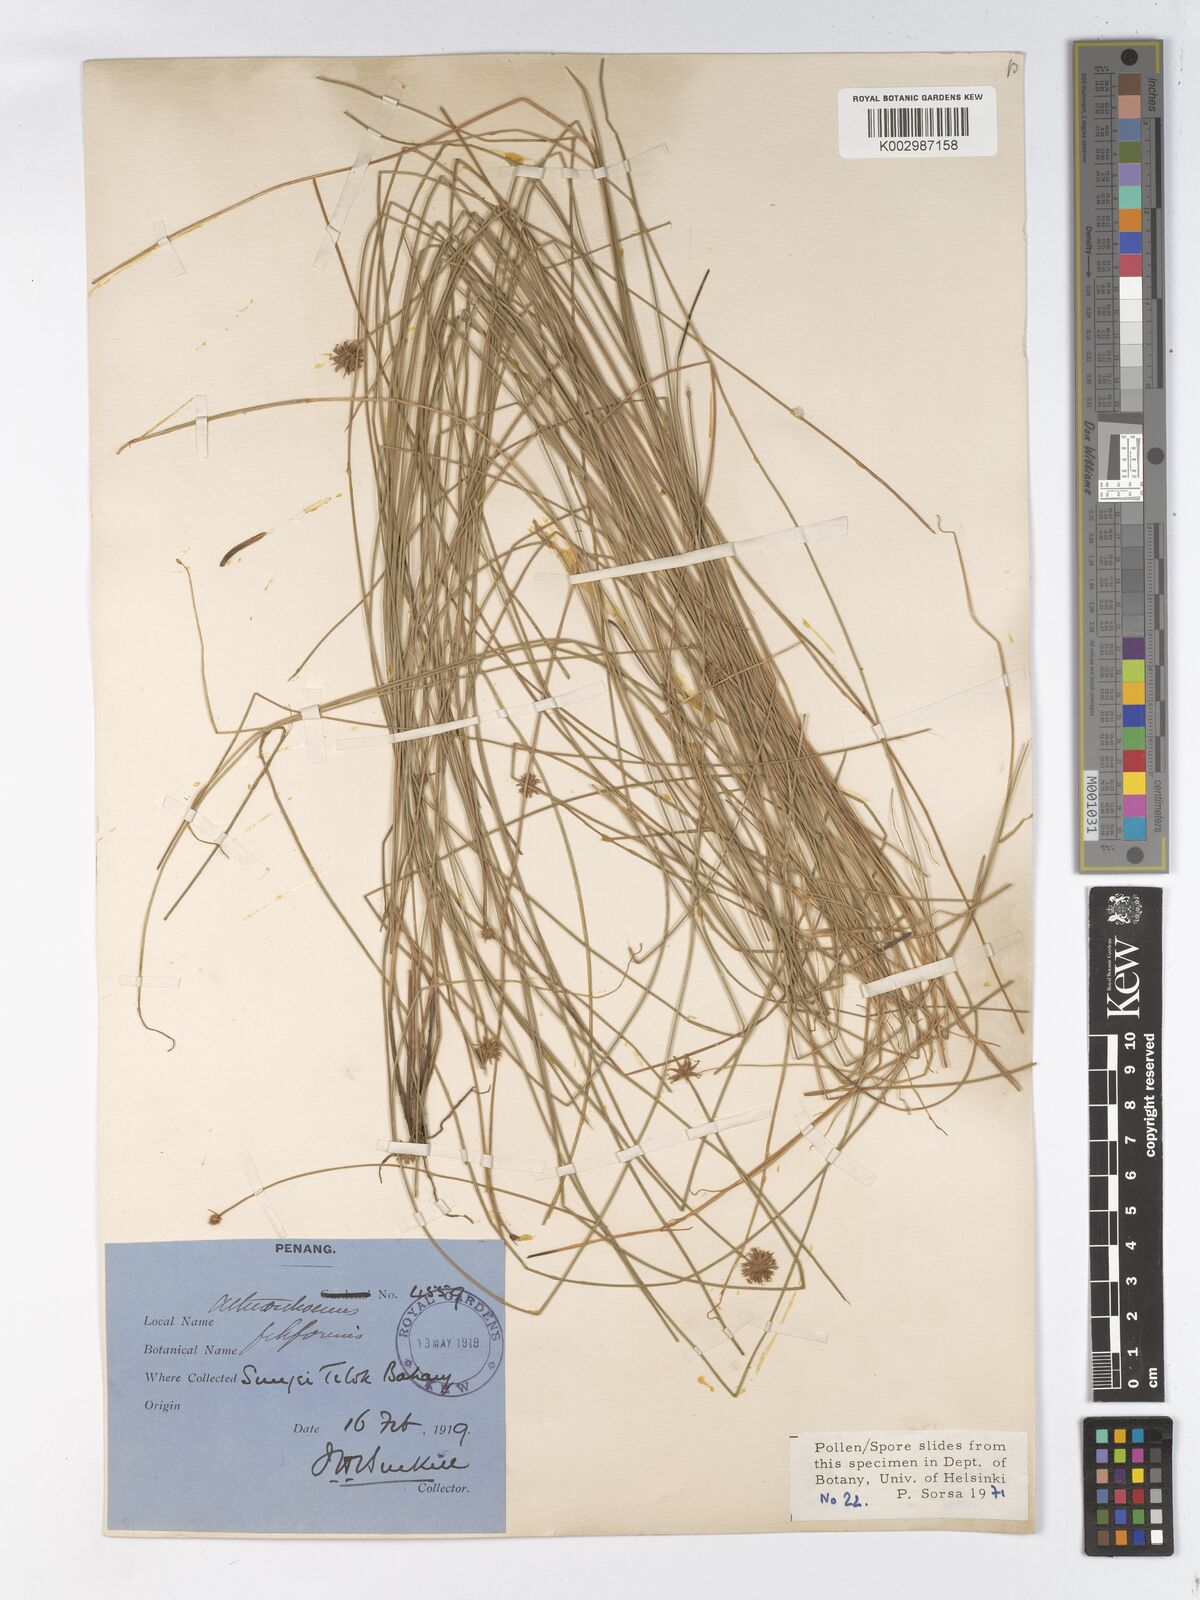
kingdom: Plantae
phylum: Tracheophyta
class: Liliopsida
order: Poales
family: Cyperaceae
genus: Actinoschoenus
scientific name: Actinoschoenus aphyllus
